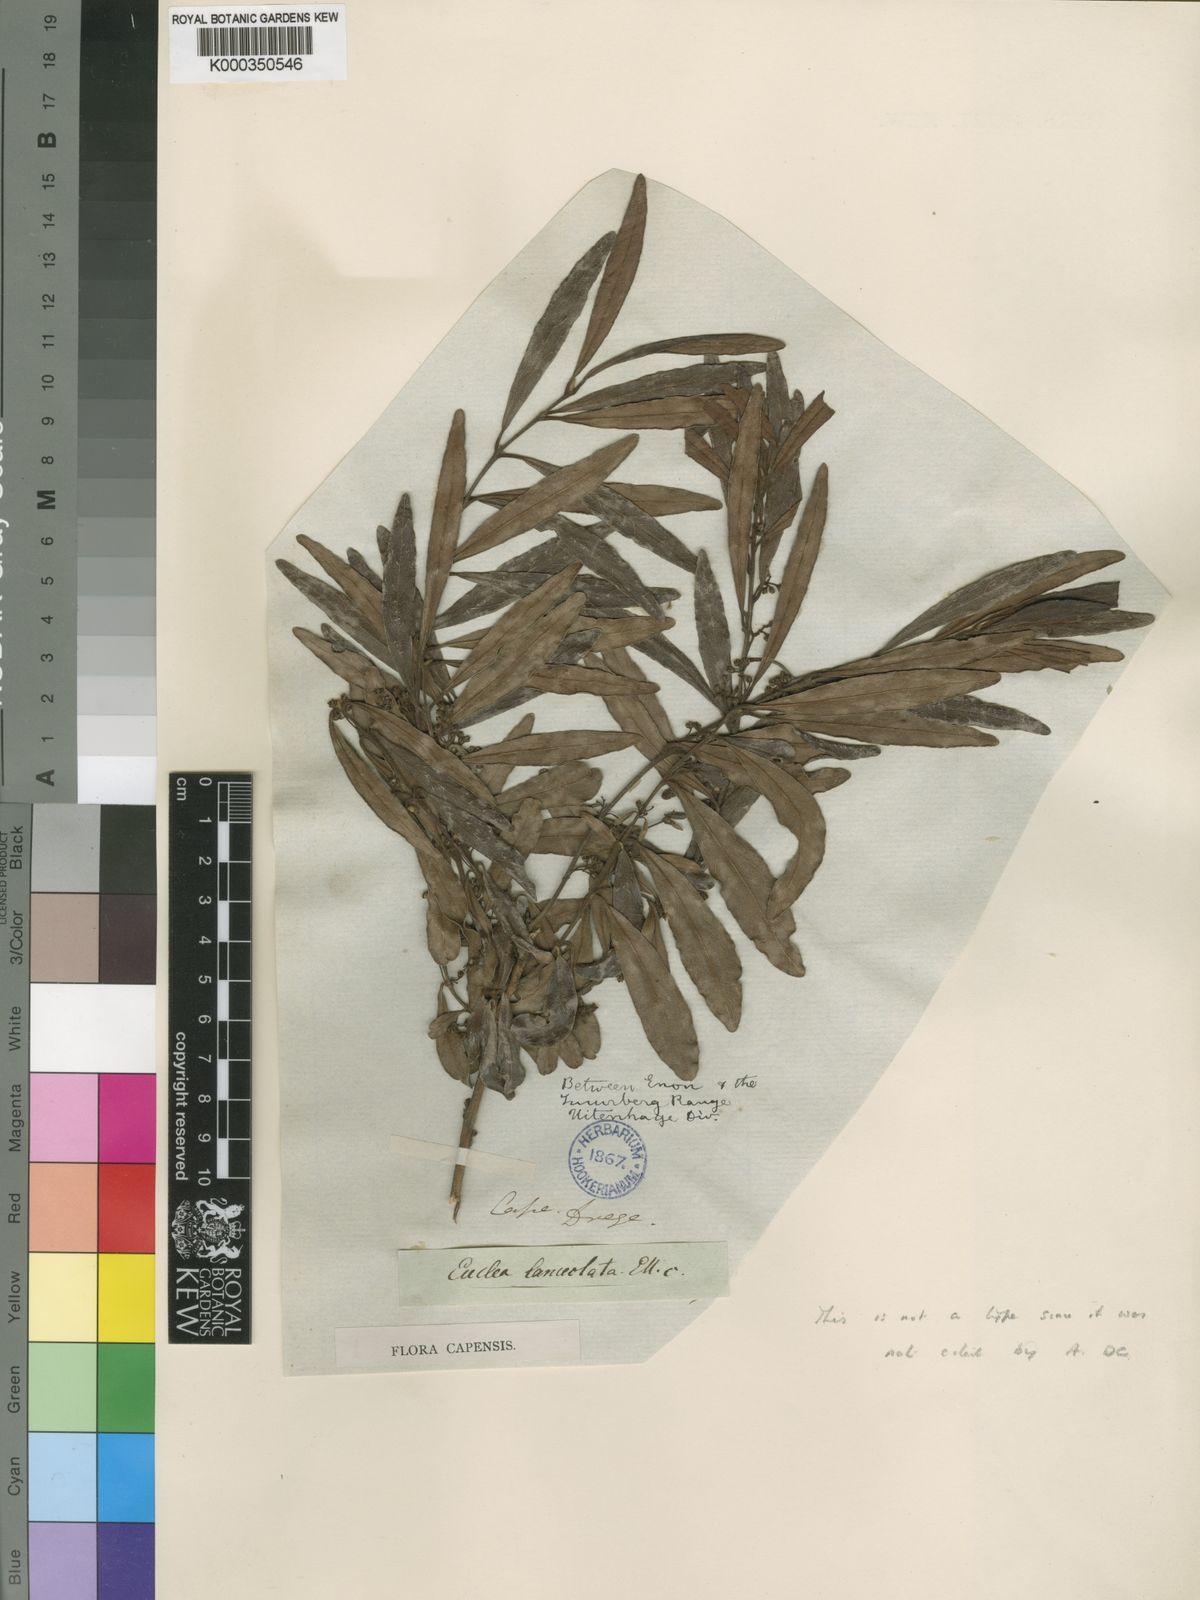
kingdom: Plantae
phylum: Tracheophyta
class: Magnoliopsida
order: Ericales
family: Ebenaceae
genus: Euclea
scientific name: Euclea
